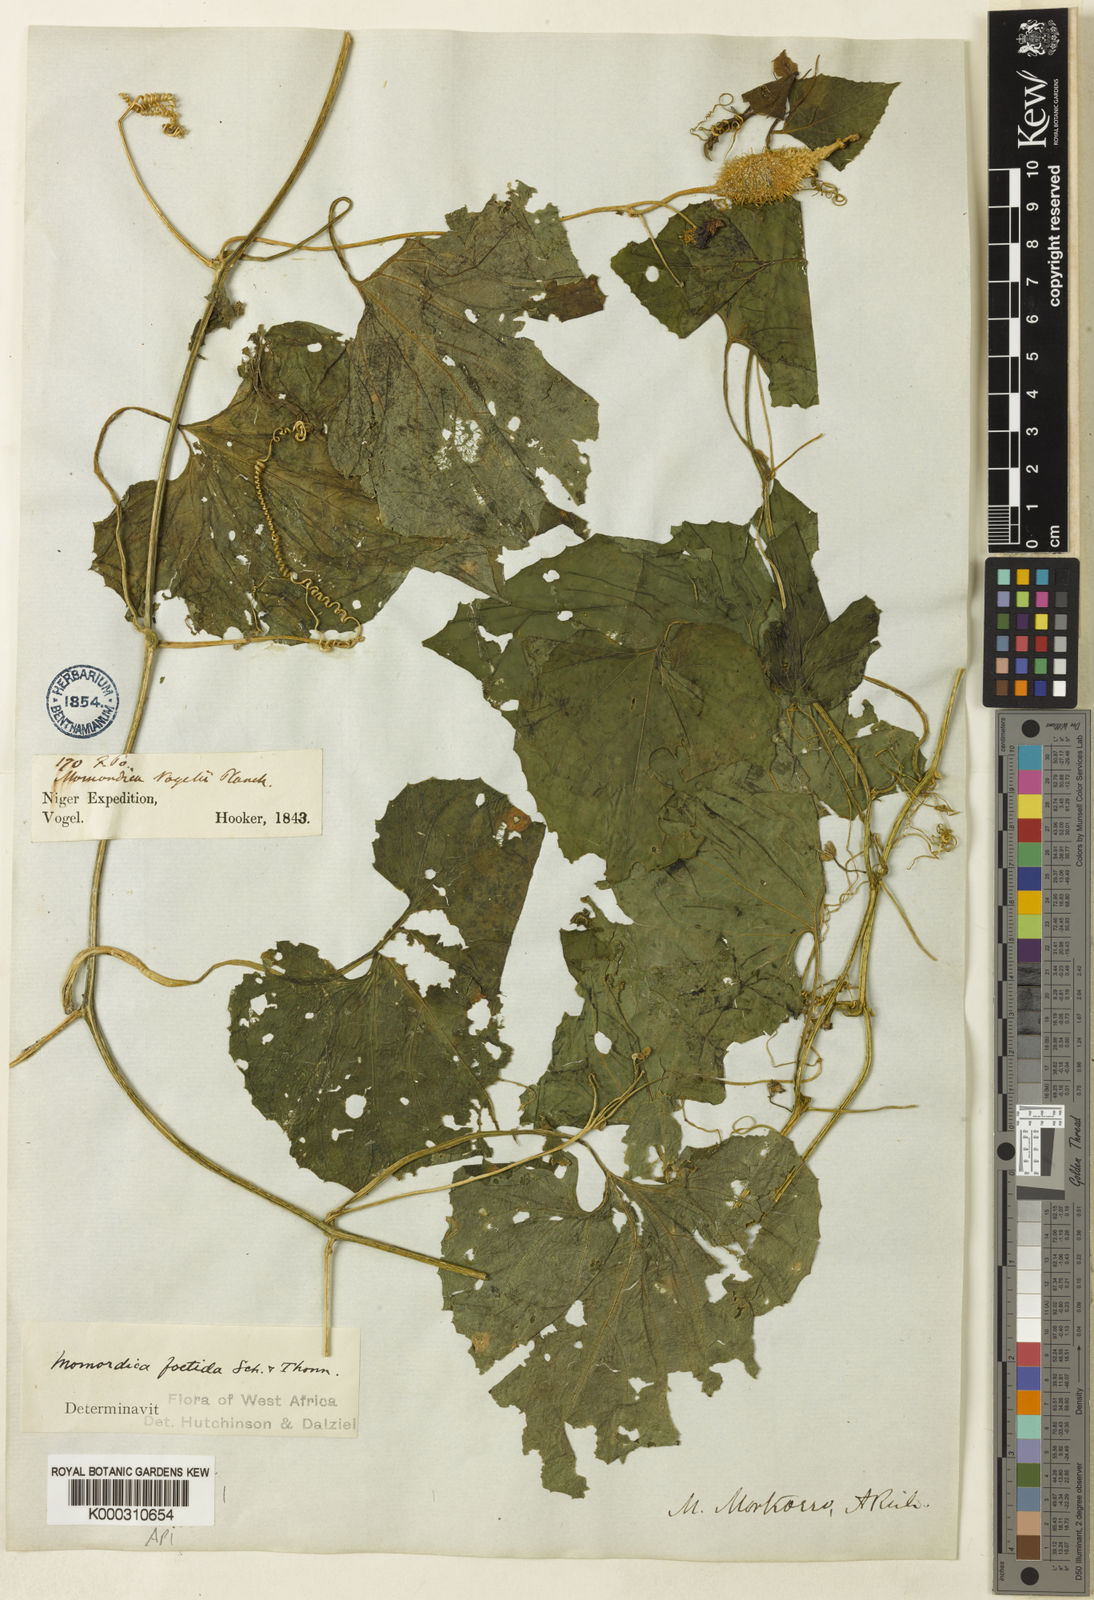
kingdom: Plantae
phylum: Tracheophyta
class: Magnoliopsida
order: Cucurbitales
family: Cucurbitaceae
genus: Momordica
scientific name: Momordica foetida
